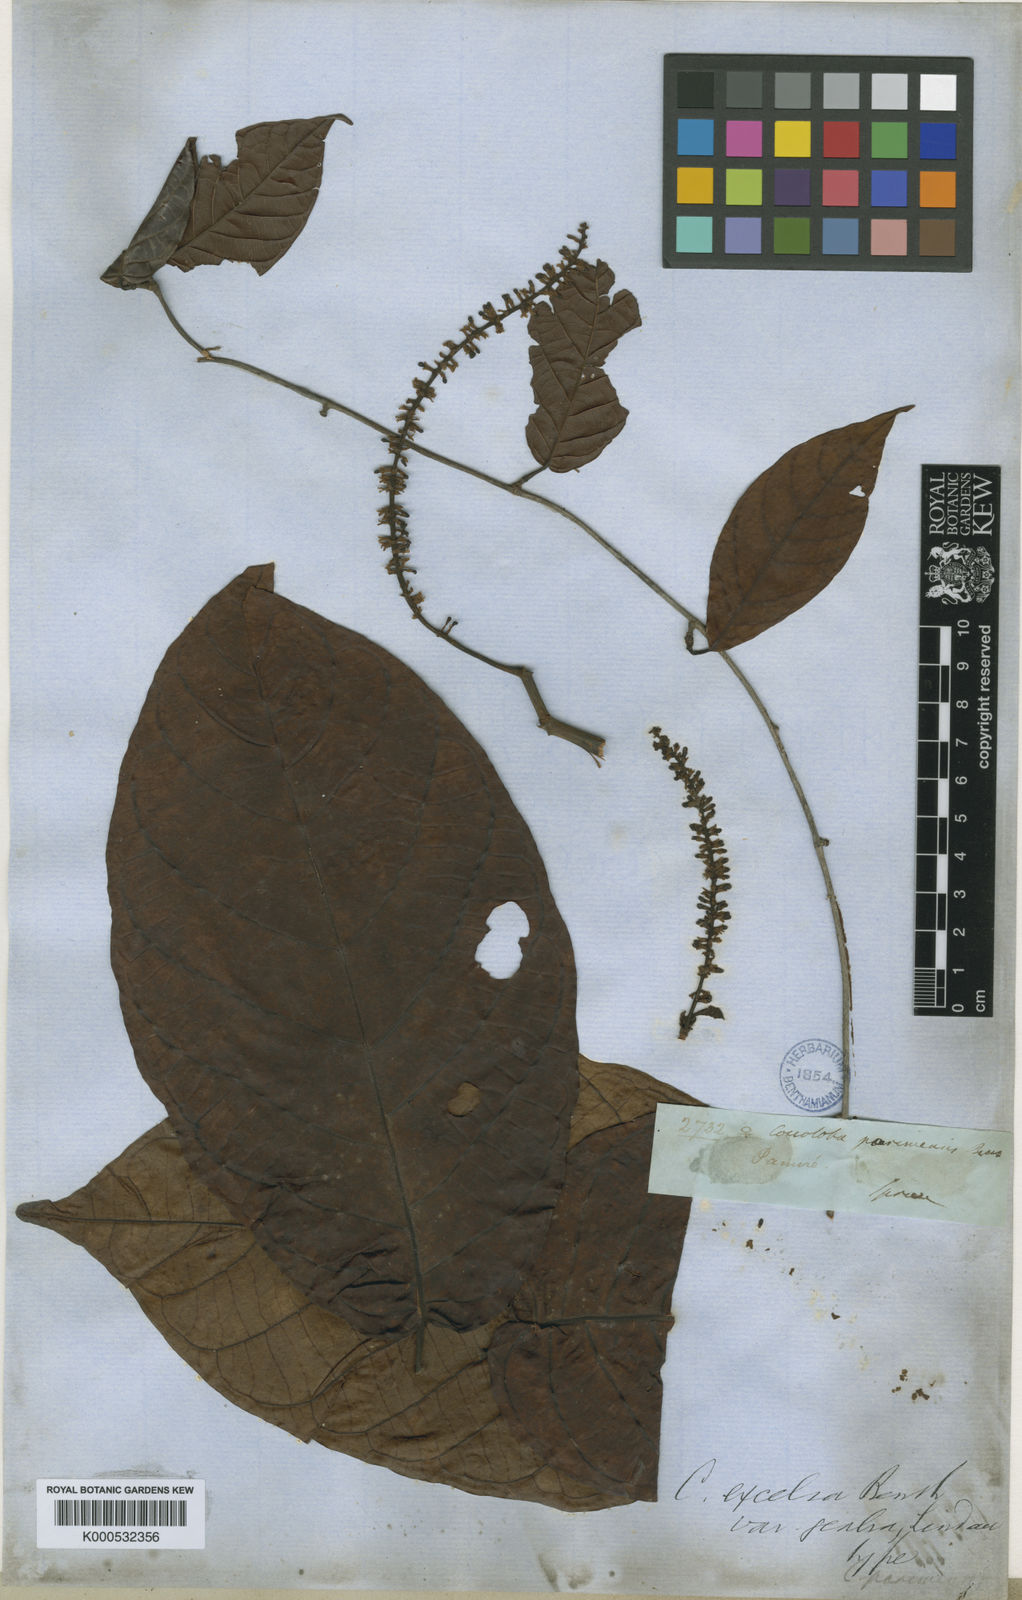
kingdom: Plantae
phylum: Tracheophyta
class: Magnoliopsida
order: Caryophyllales
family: Polygonaceae
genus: Coccoloba
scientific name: Coccoloba excelsa
